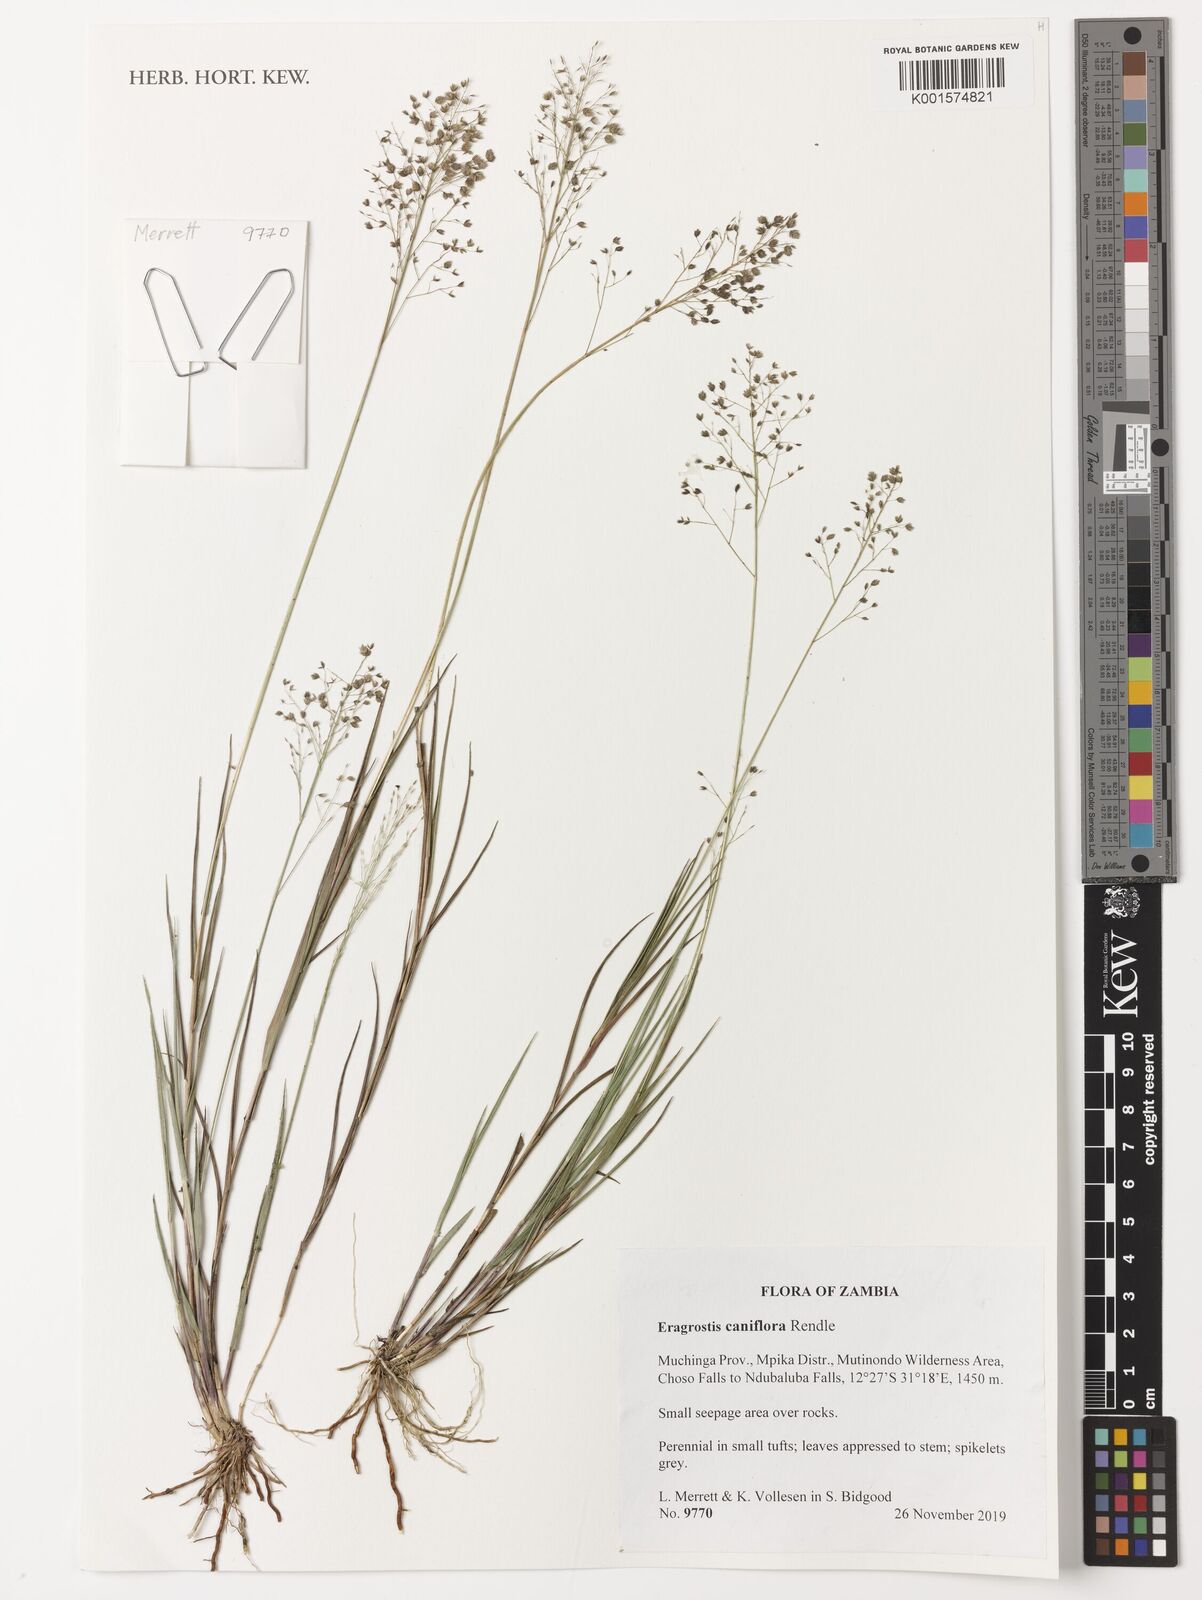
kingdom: Plantae
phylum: Tracheophyta
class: Liliopsida
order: Poales
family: Poaceae
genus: Eragrostis
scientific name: Eragrostis caniflora
